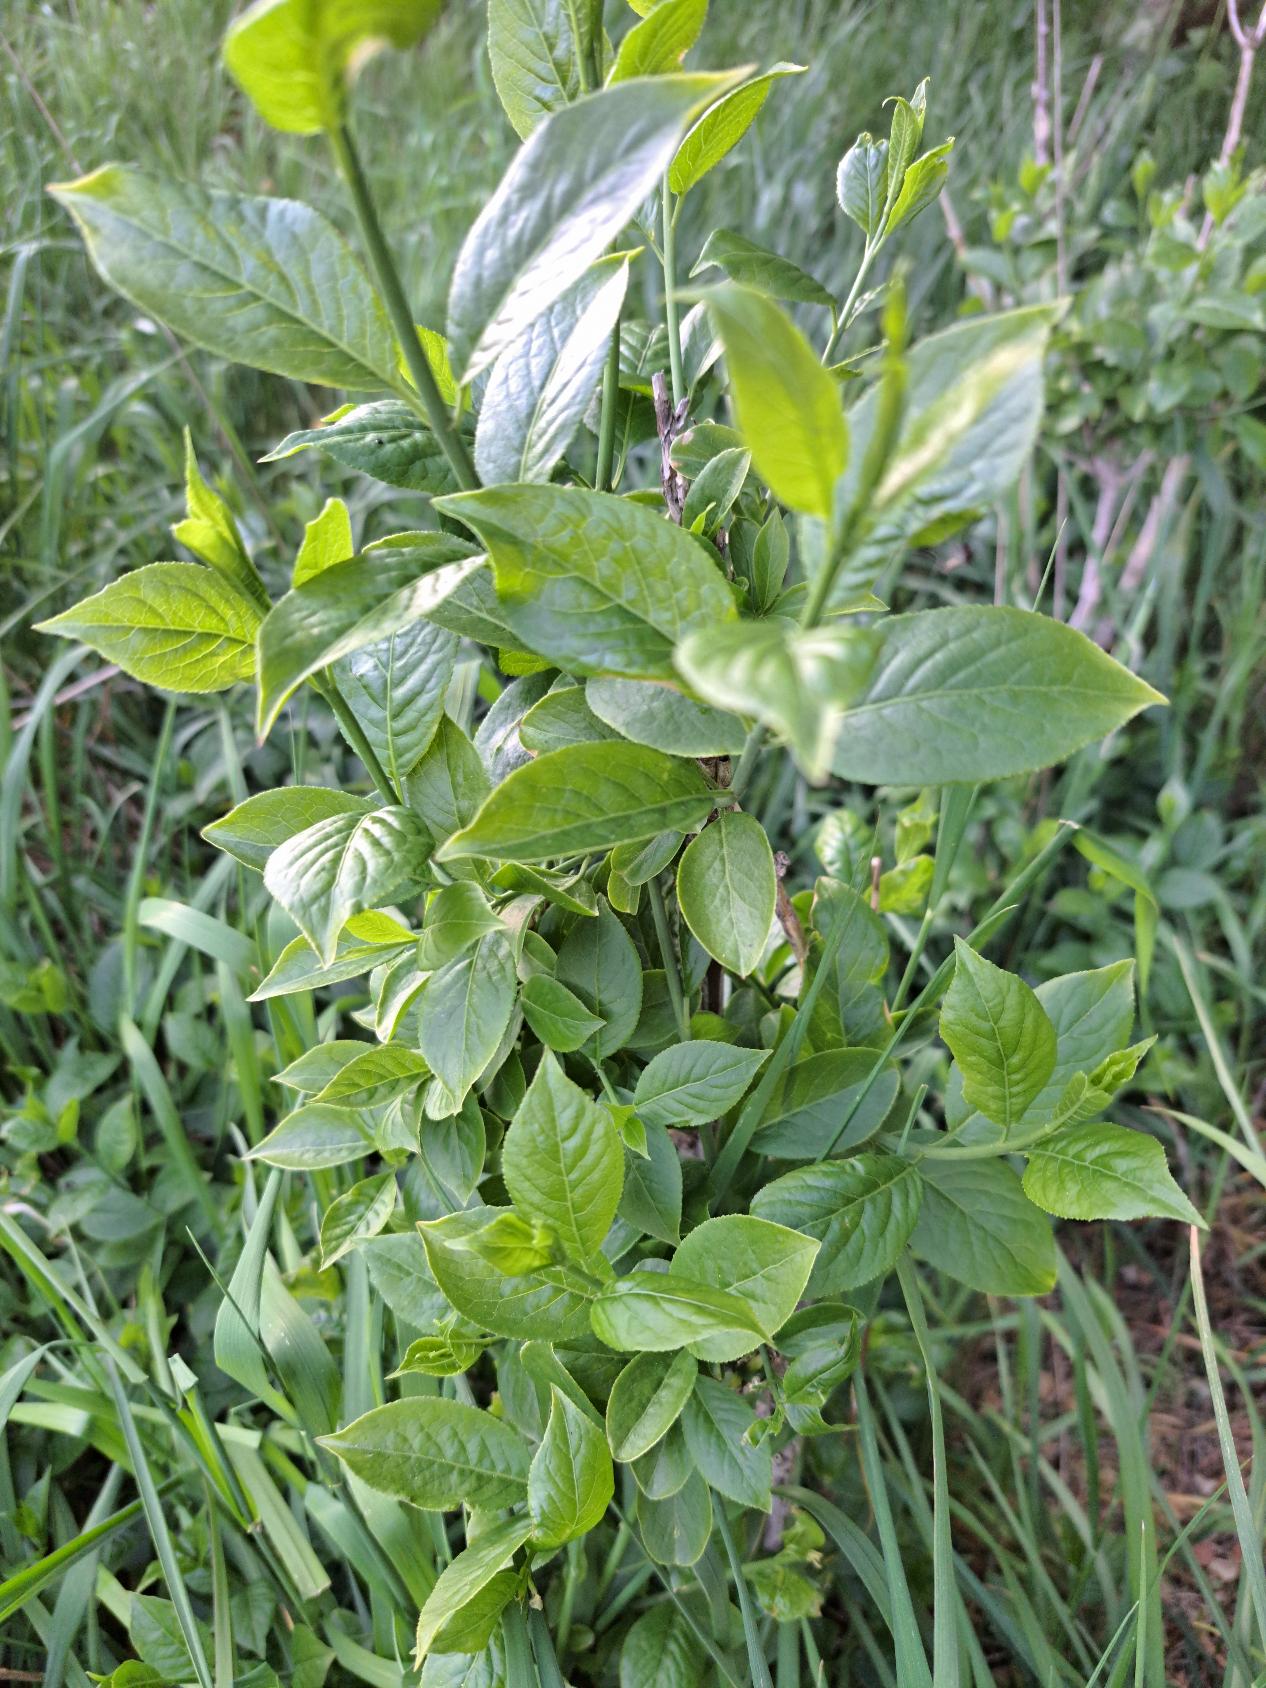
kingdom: Plantae
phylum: Tracheophyta
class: Magnoliopsida
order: Celastrales
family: Celastraceae
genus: Euonymus
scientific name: Euonymus europaeus
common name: Benved
